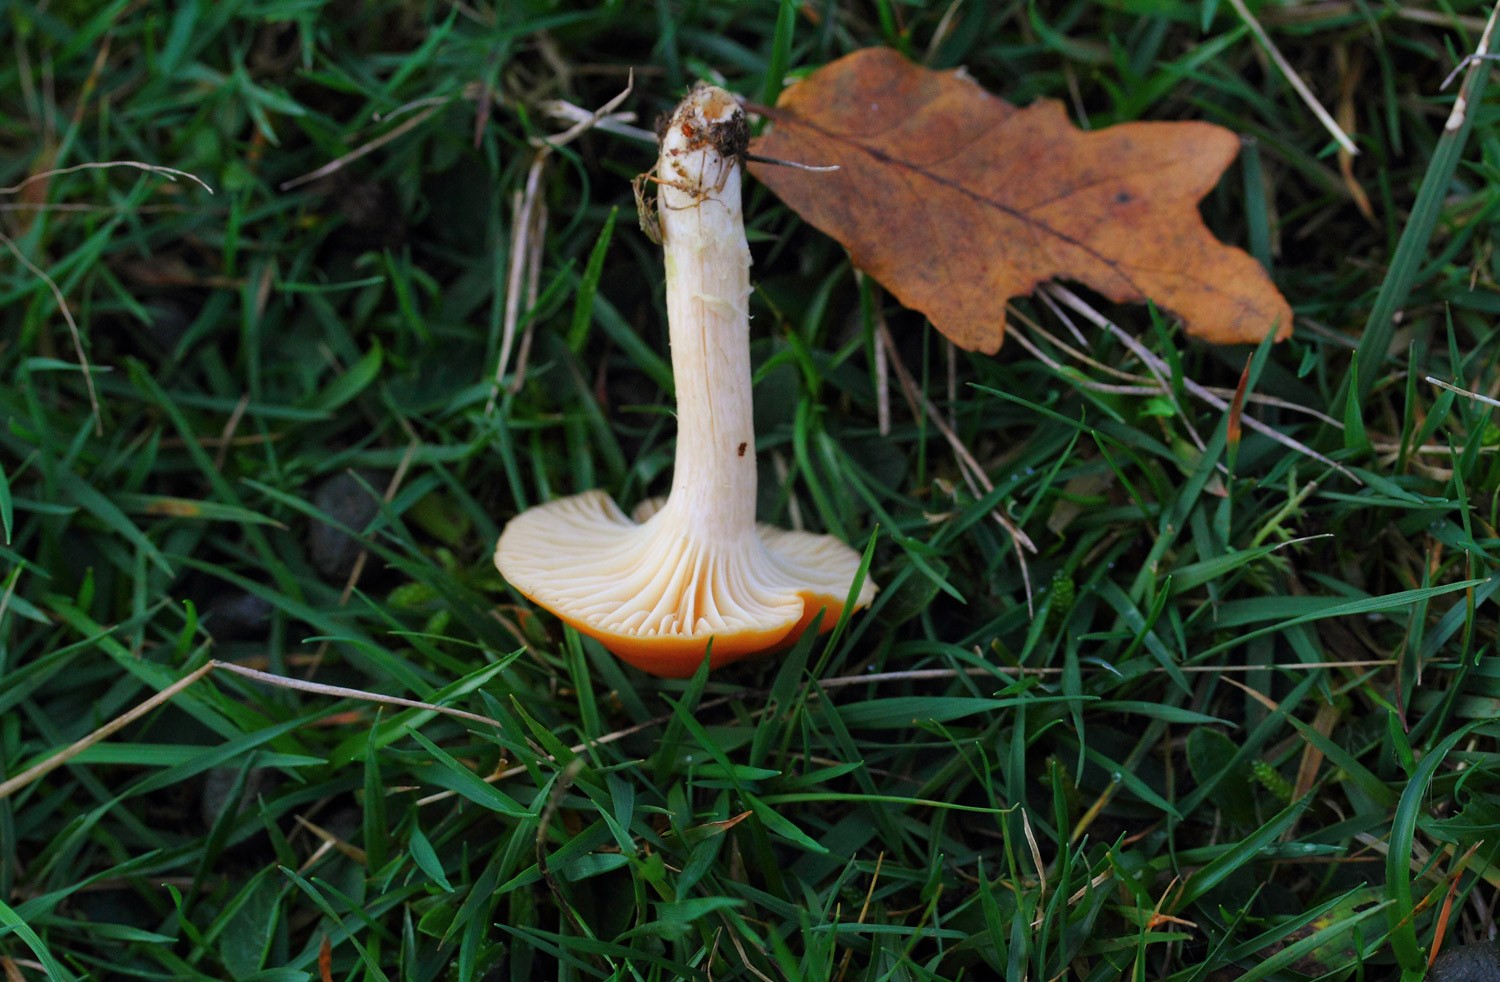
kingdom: Fungi
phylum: Basidiomycota
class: Agaricomycetes
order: Agaricales
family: Hygrophoraceae
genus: Cuphophyllus
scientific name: Cuphophyllus pratensis
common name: eng-vokshat
